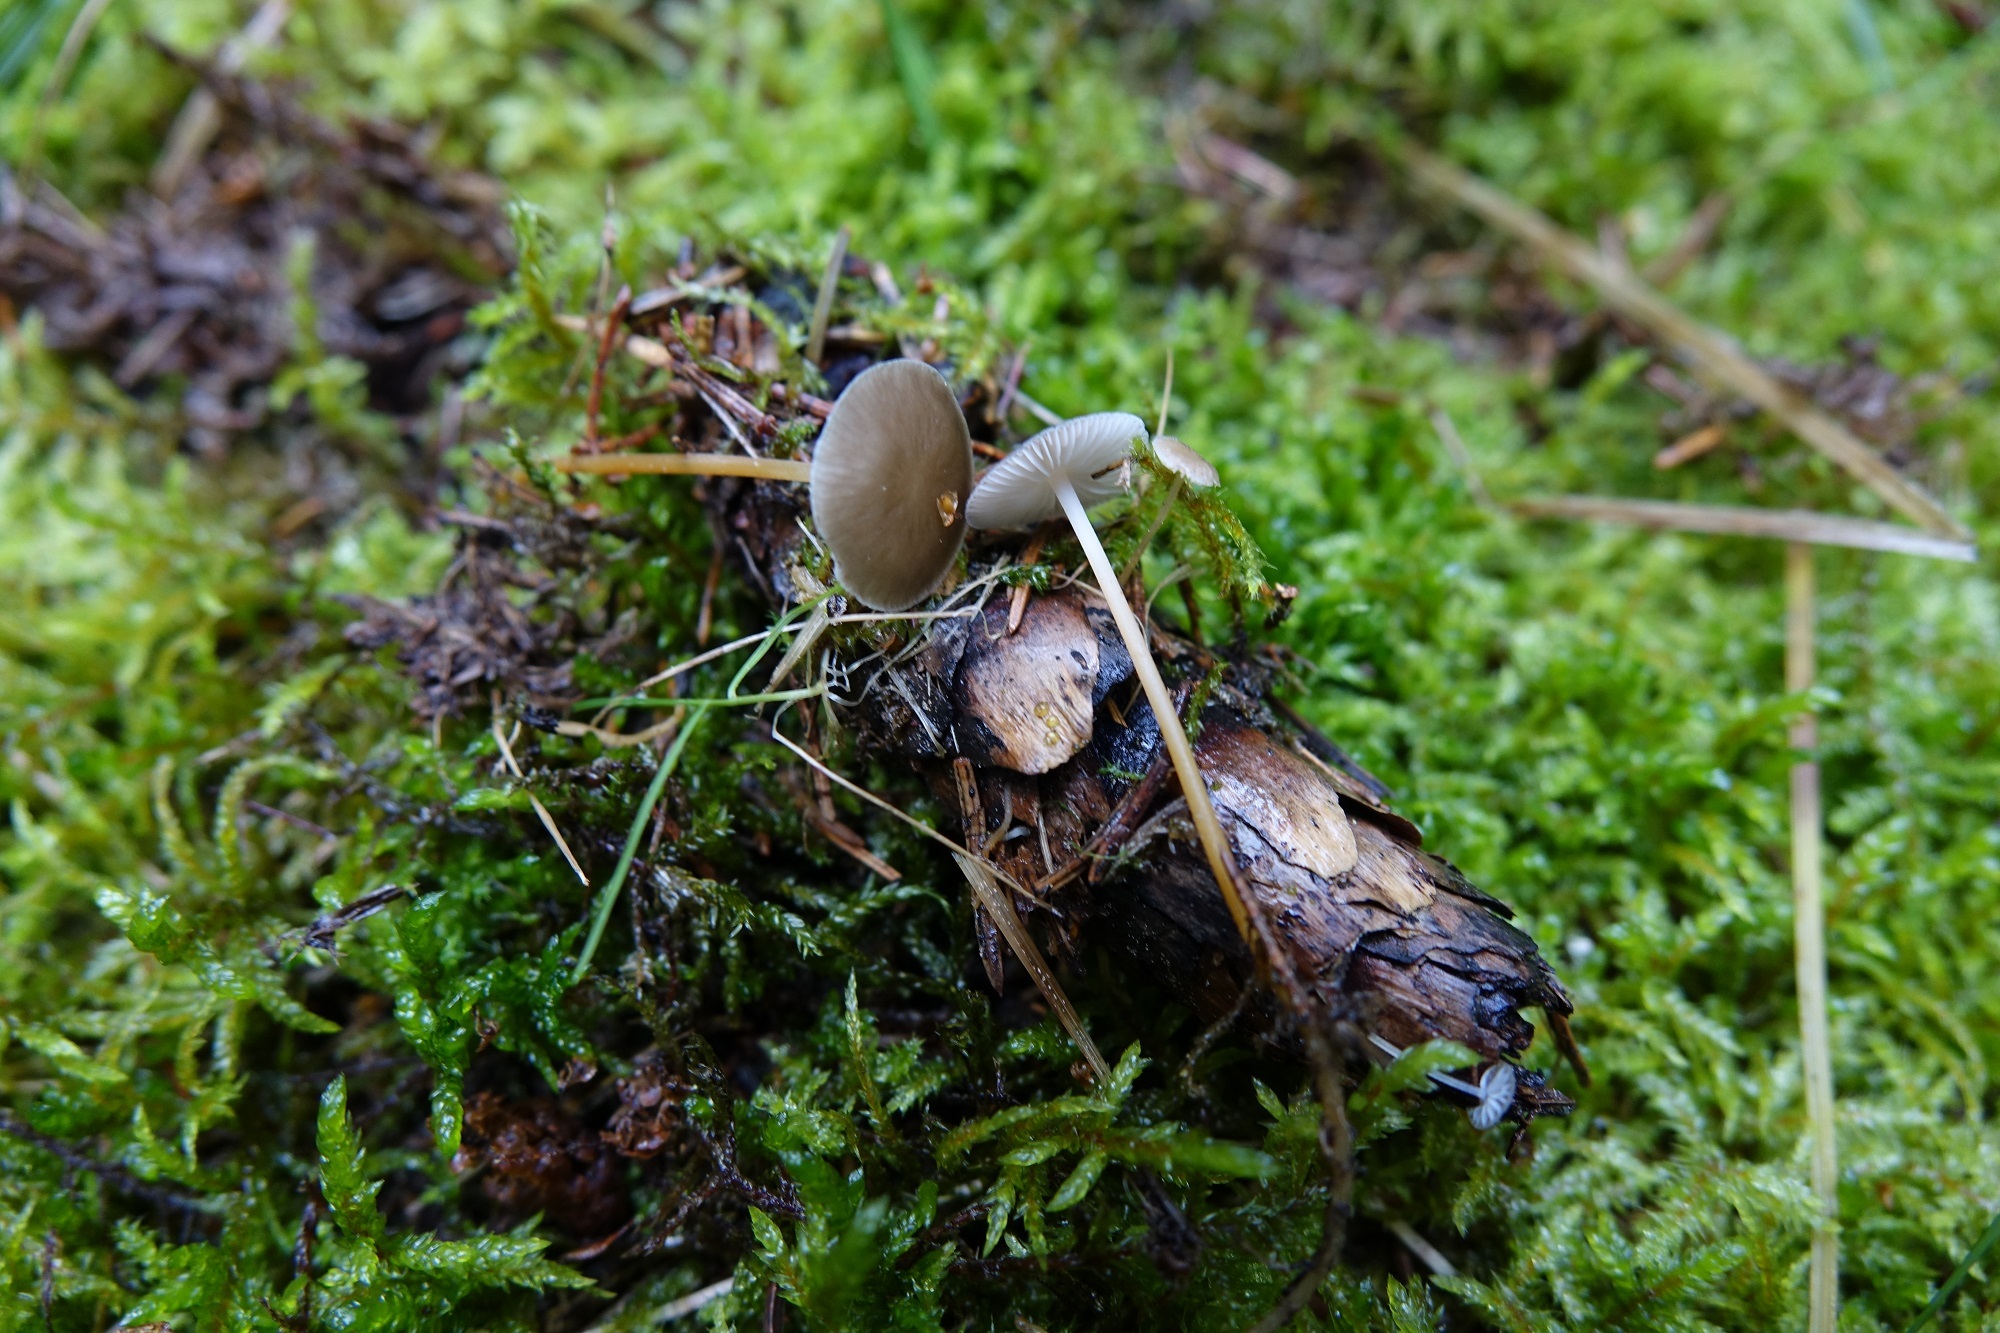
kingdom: Fungi
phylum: Basidiomycota
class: Agaricomycetes
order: Agaricales
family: Physalacriaceae
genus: Strobilurus
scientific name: Strobilurus esculentus
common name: Sprucecone cap
